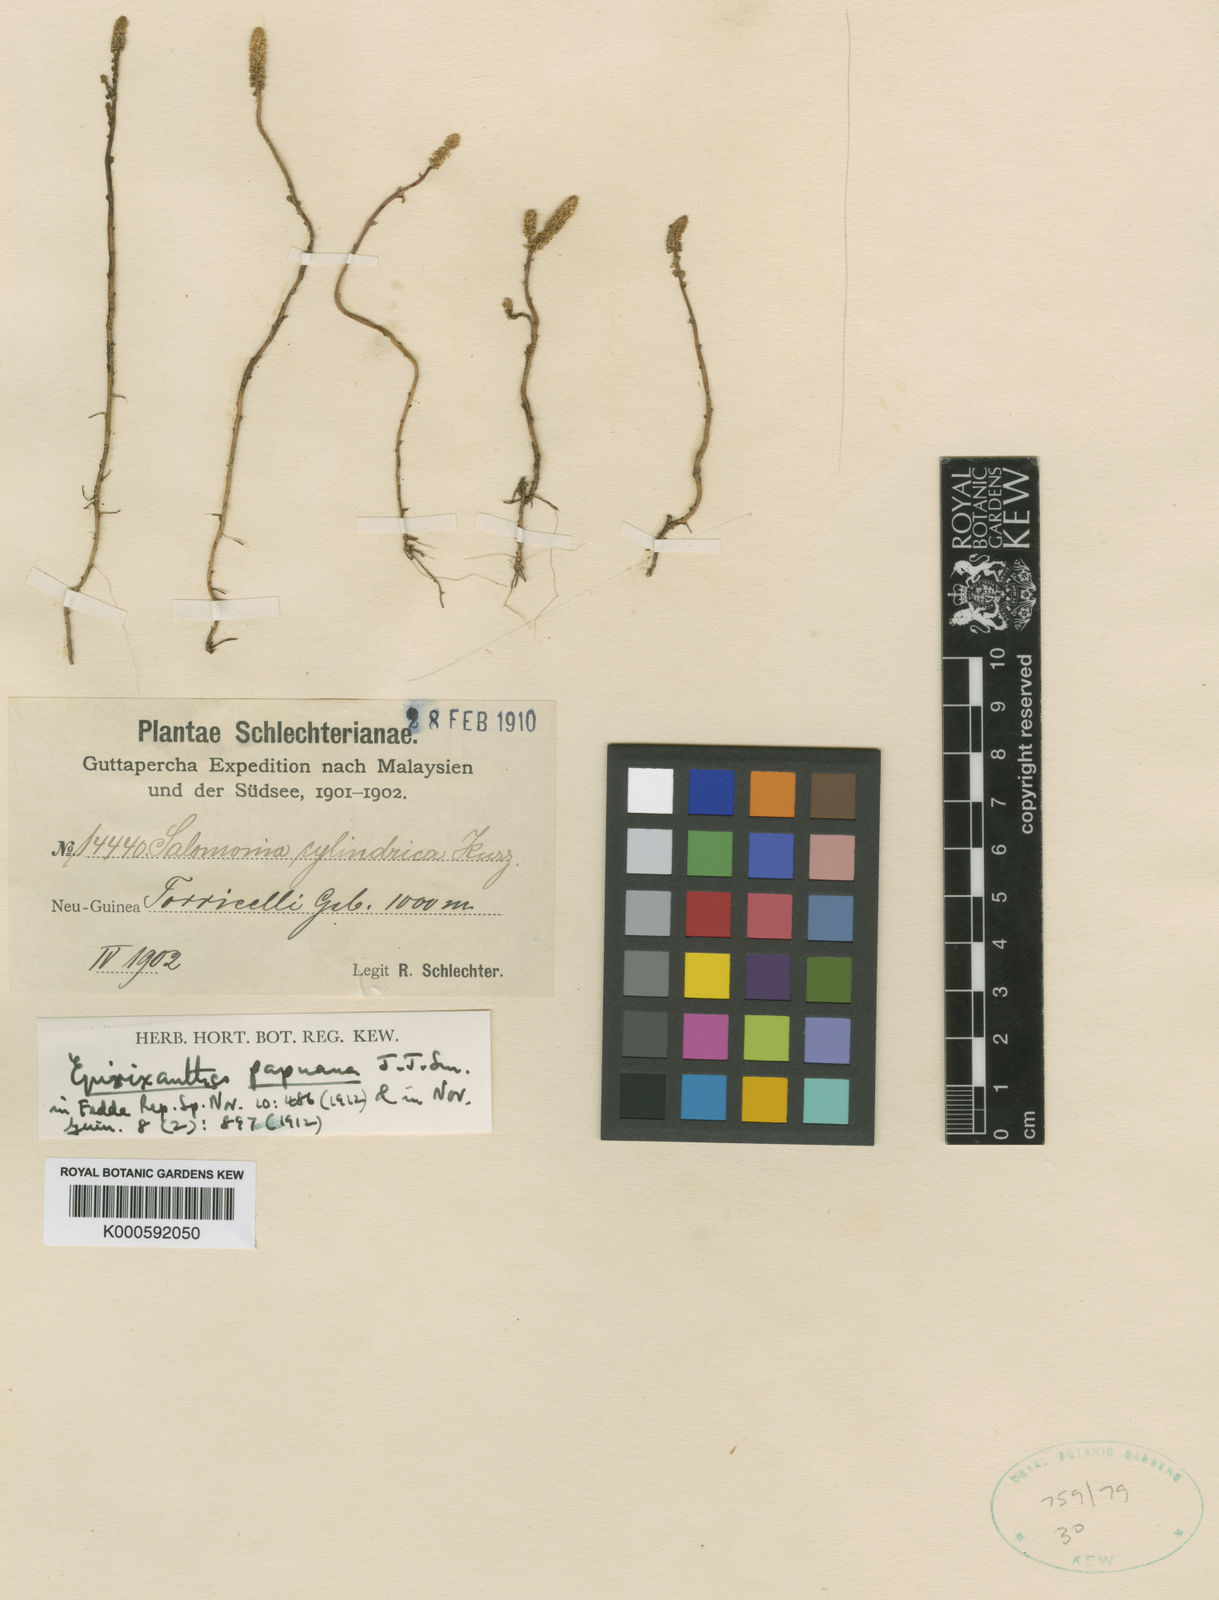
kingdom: Plantae
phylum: Tracheophyta
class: Magnoliopsida
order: Fabales
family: Polygalaceae
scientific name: Polygalaceae
